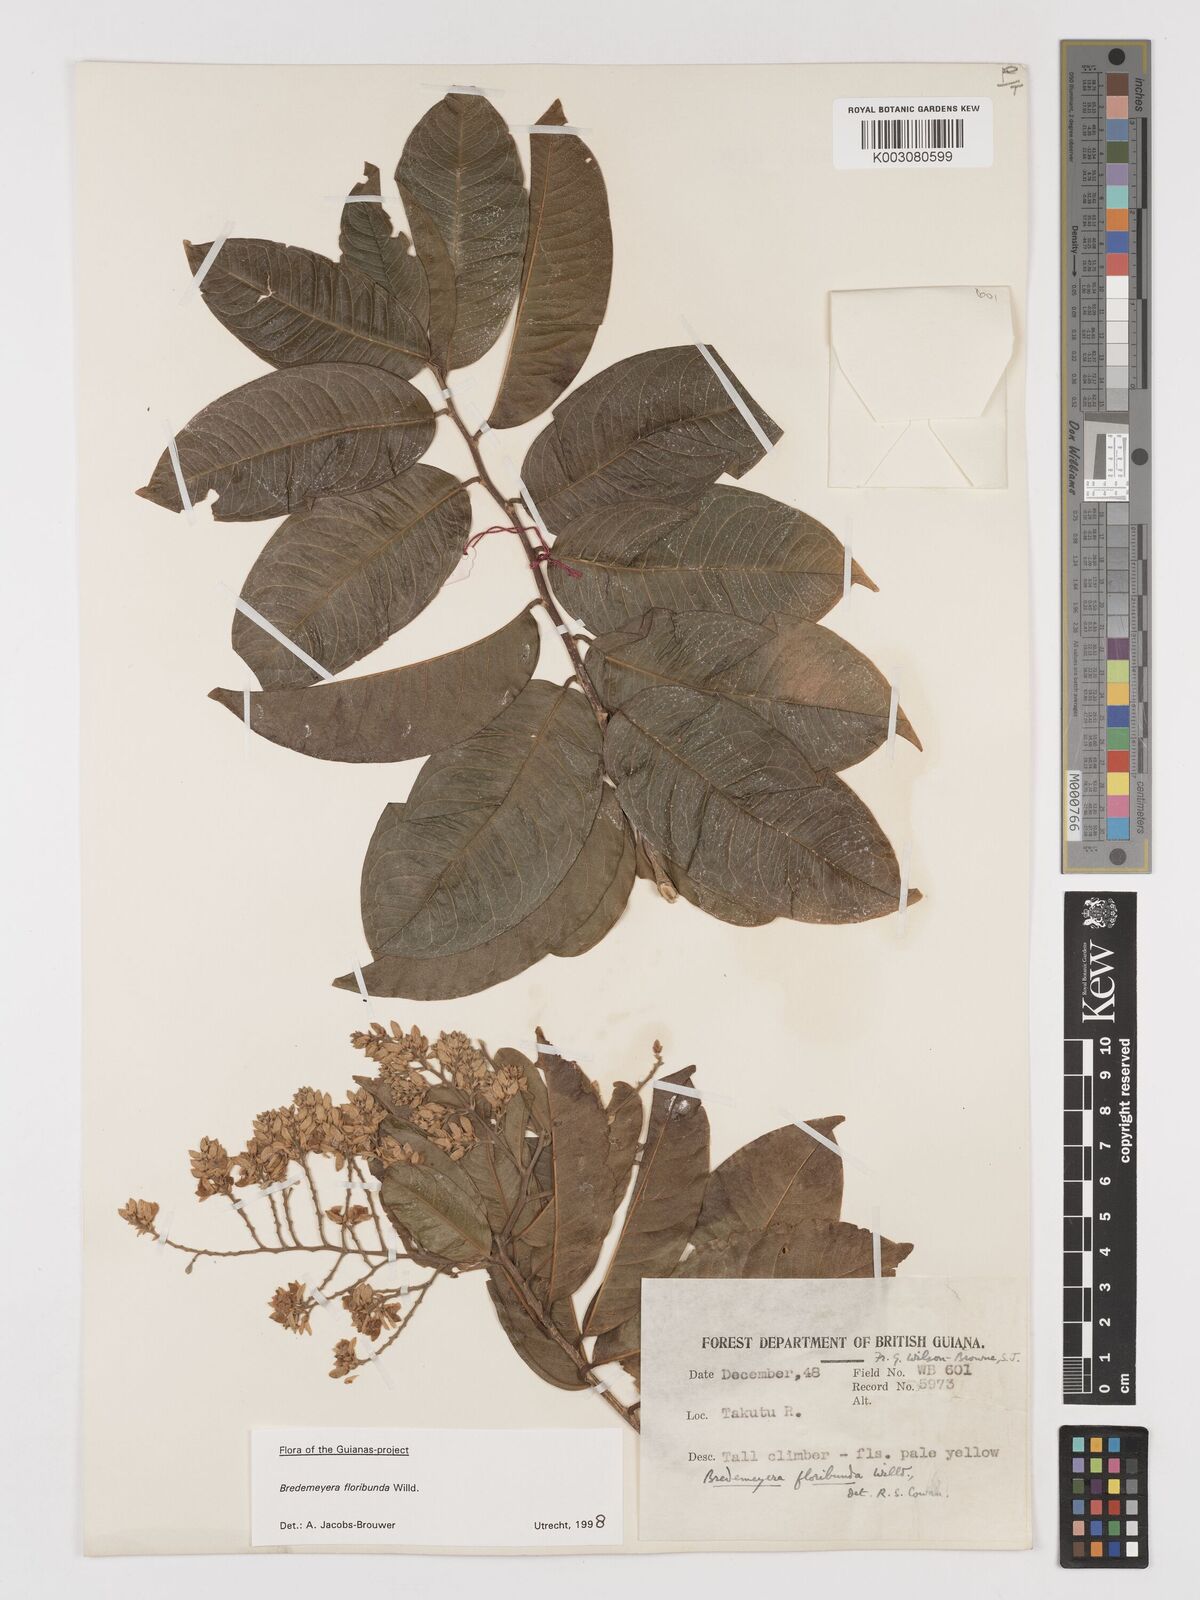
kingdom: Plantae
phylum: Tracheophyta
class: Magnoliopsida
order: Fabales
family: Polygalaceae
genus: Bredemeyera
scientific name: Bredemeyera floribunda
